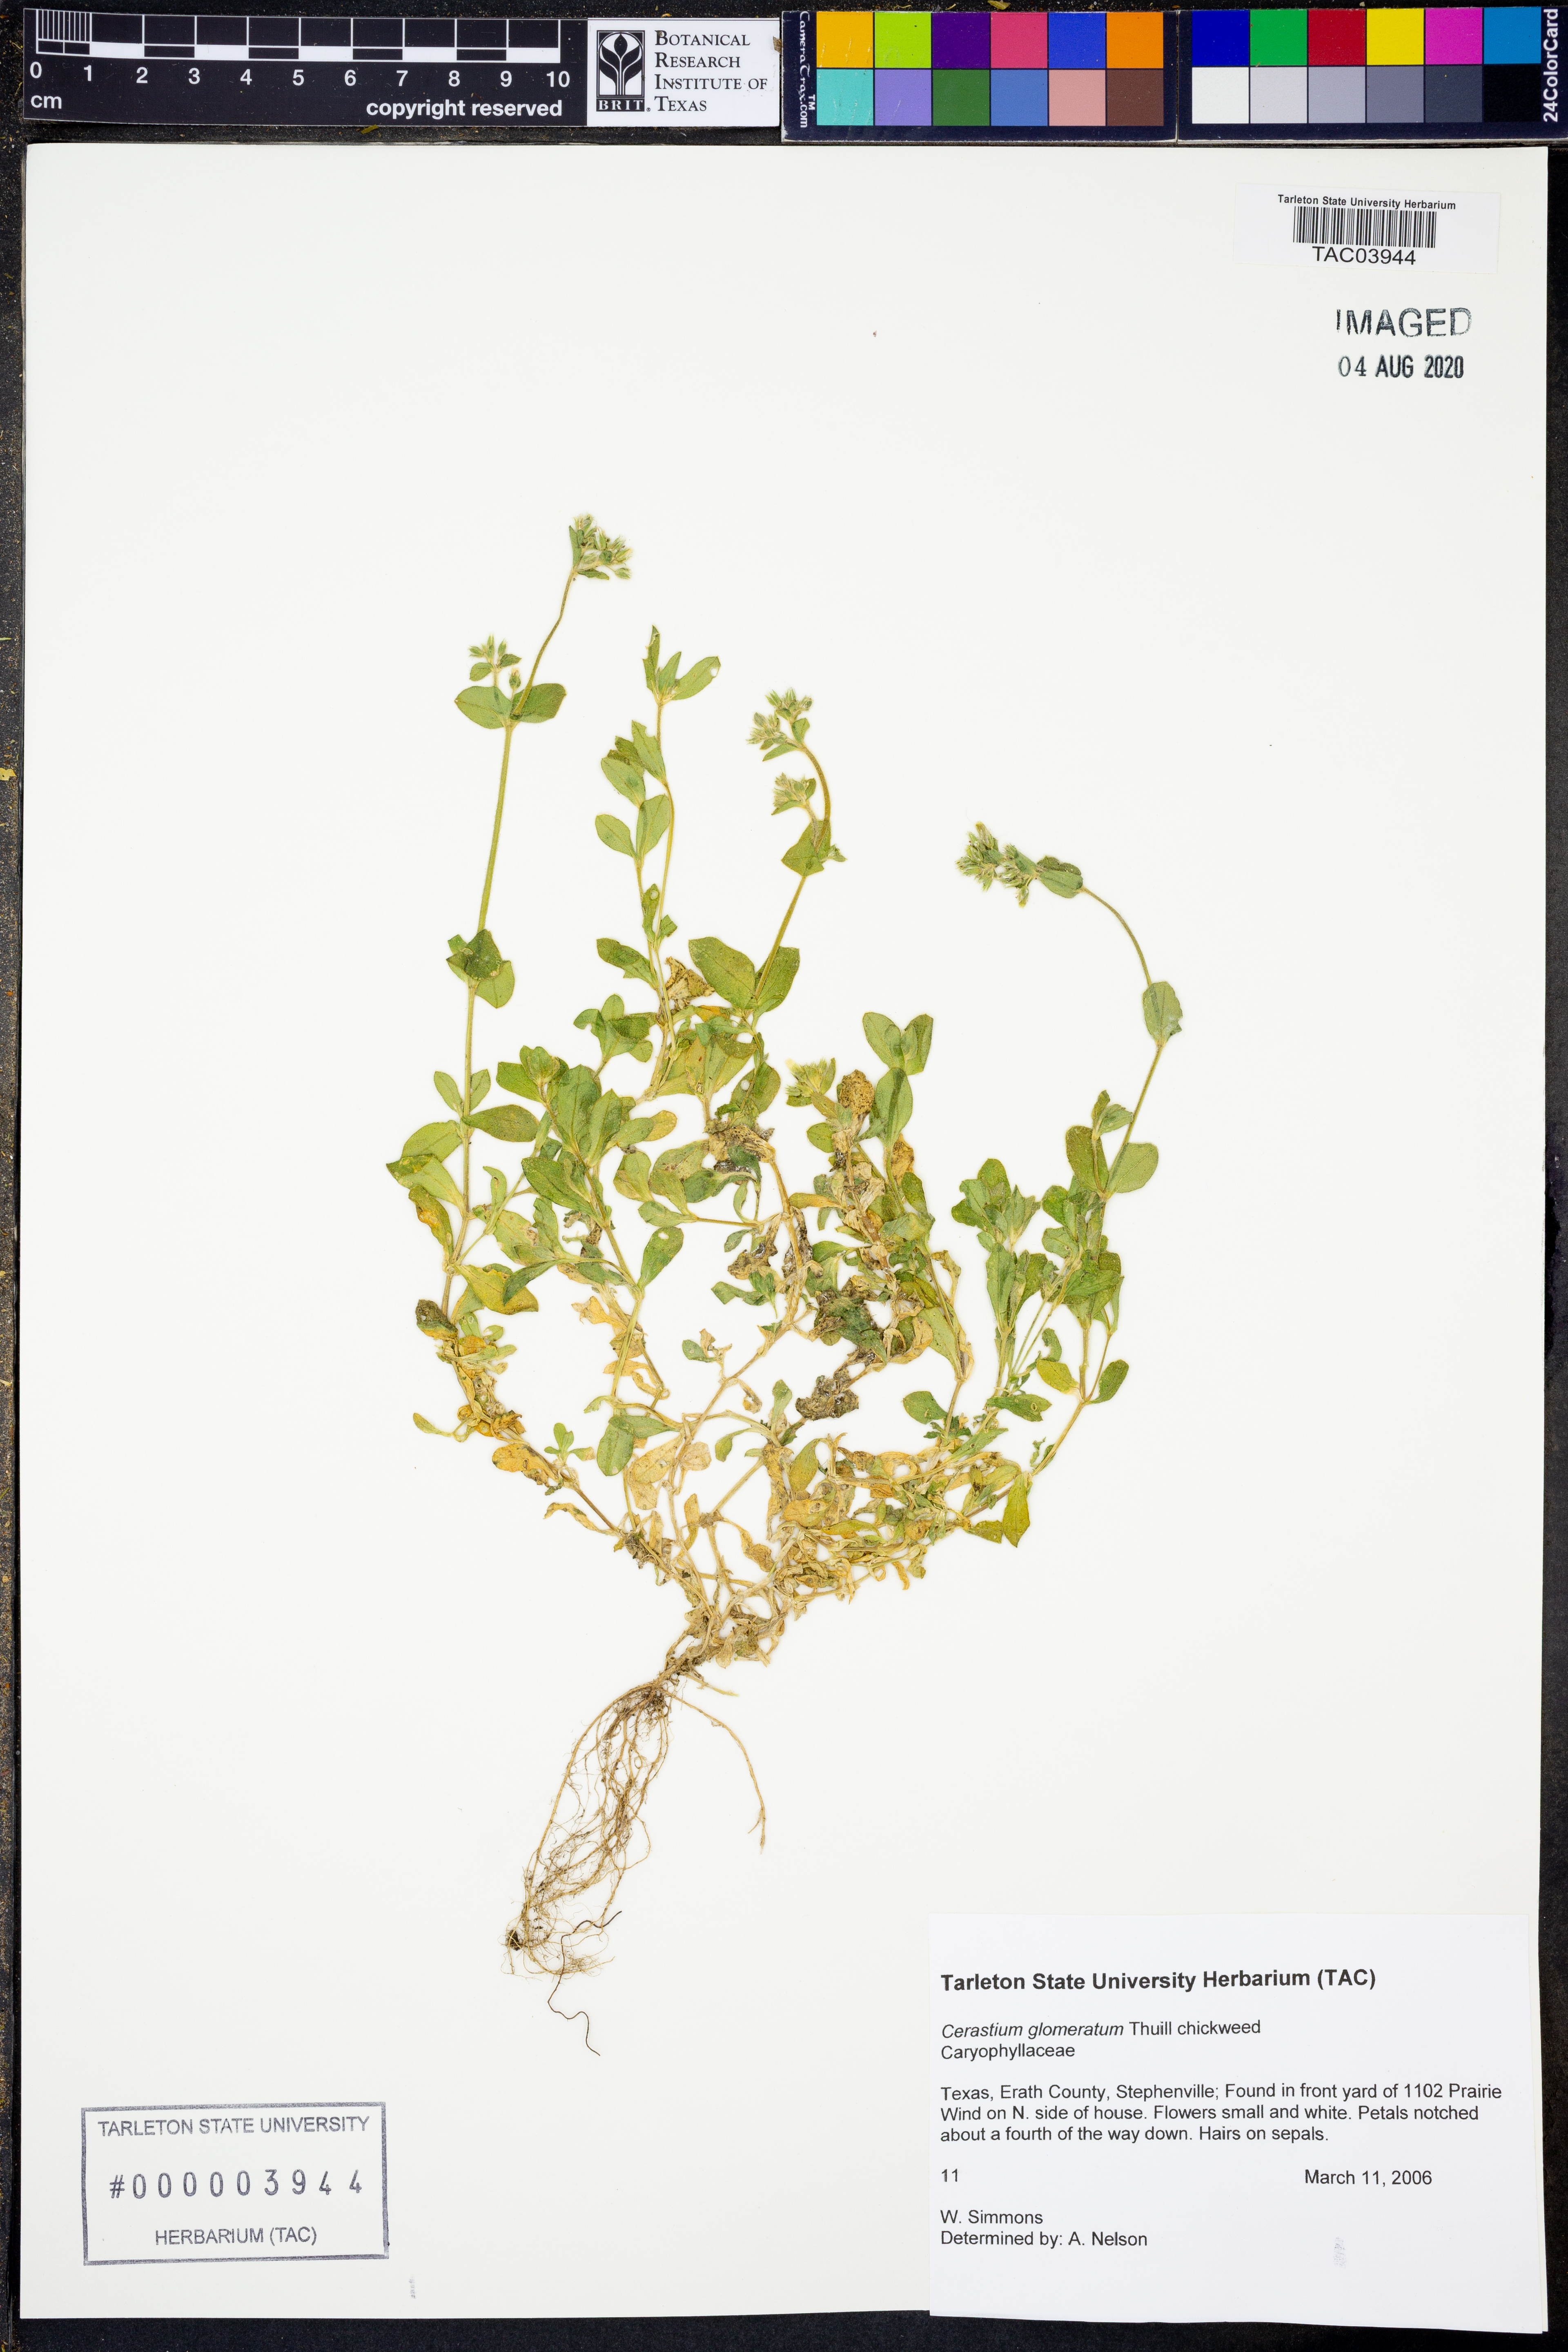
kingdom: Plantae
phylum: Tracheophyta
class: Magnoliopsida
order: Caryophyllales
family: Caryophyllaceae
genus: Cerastium
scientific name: Cerastium glomeratum
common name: Sticky chickweed
